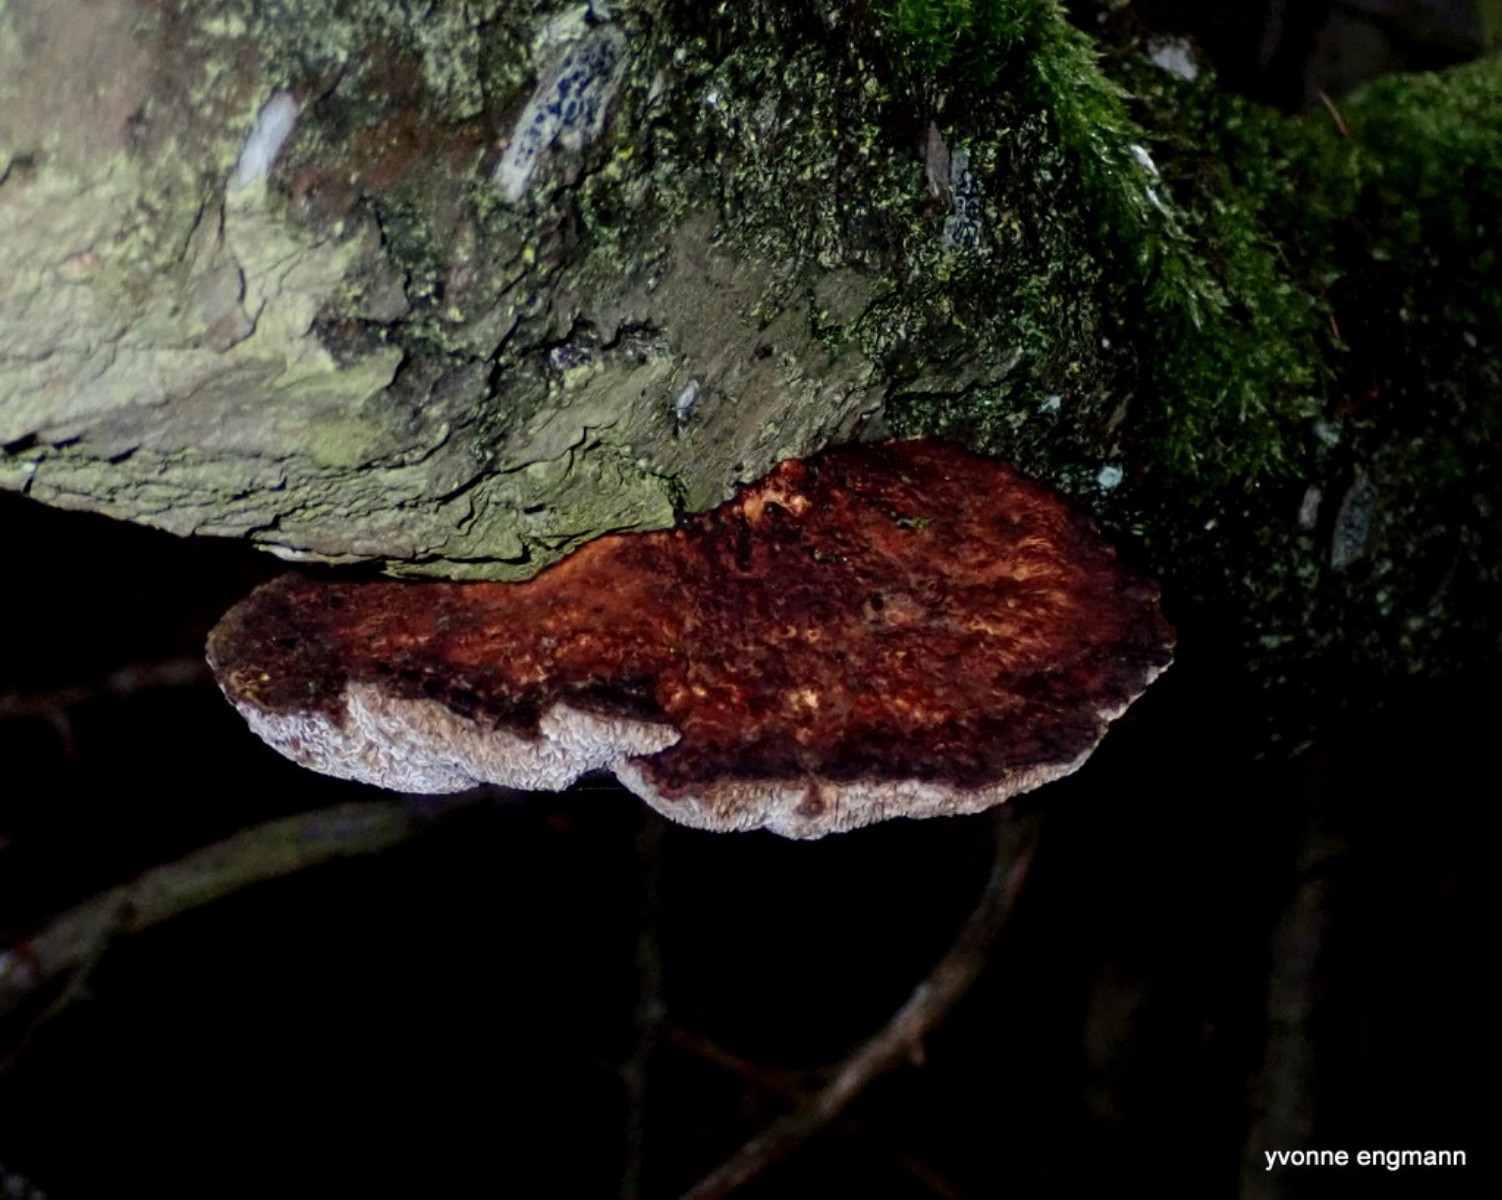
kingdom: Fungi
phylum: Basidiomycota
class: Agaricomycetes
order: Polyporales
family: Polyporaceae
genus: Daedaleopsis
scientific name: Daedaleopsis confragosa
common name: rødmende læderporesvamp
